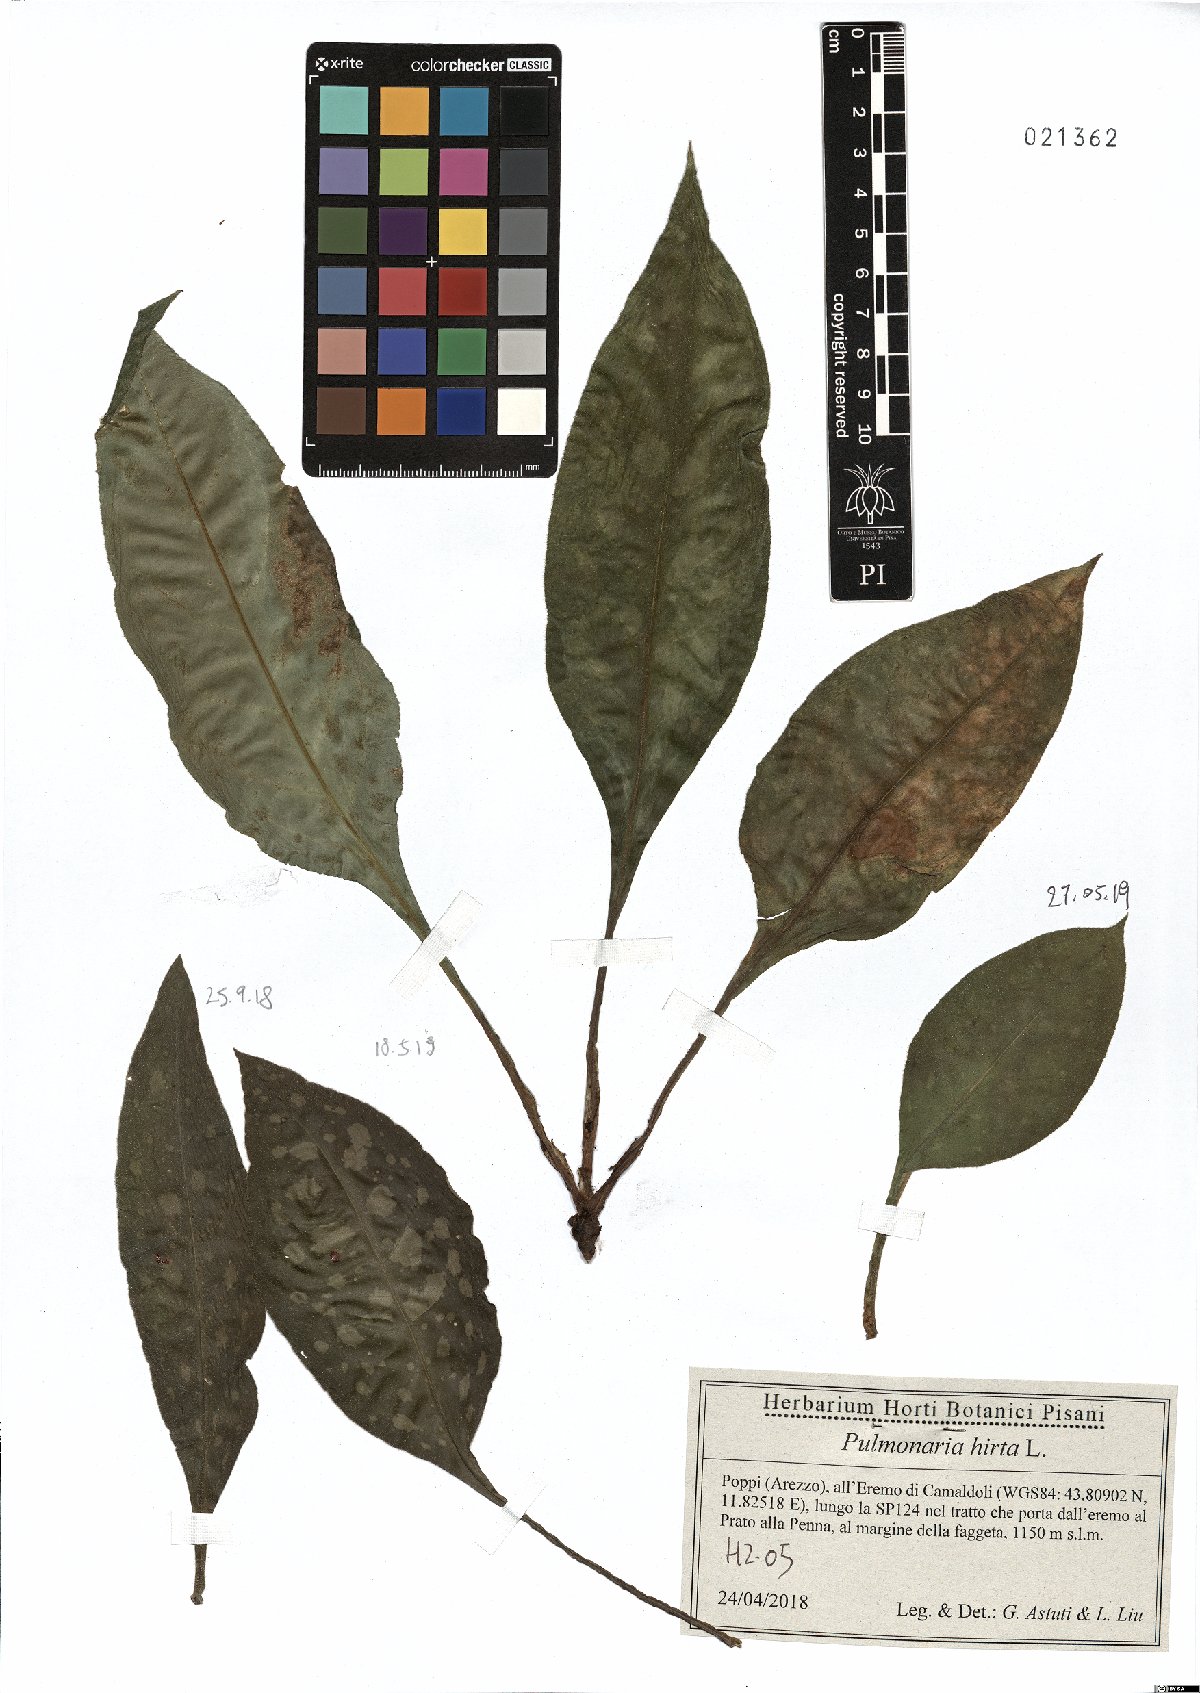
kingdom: Plantae
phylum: Tracheophyta
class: Magnoliopsida
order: Boraginales
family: Boraginaceae
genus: Pulmonaria
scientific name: Pulmonaria hirta
